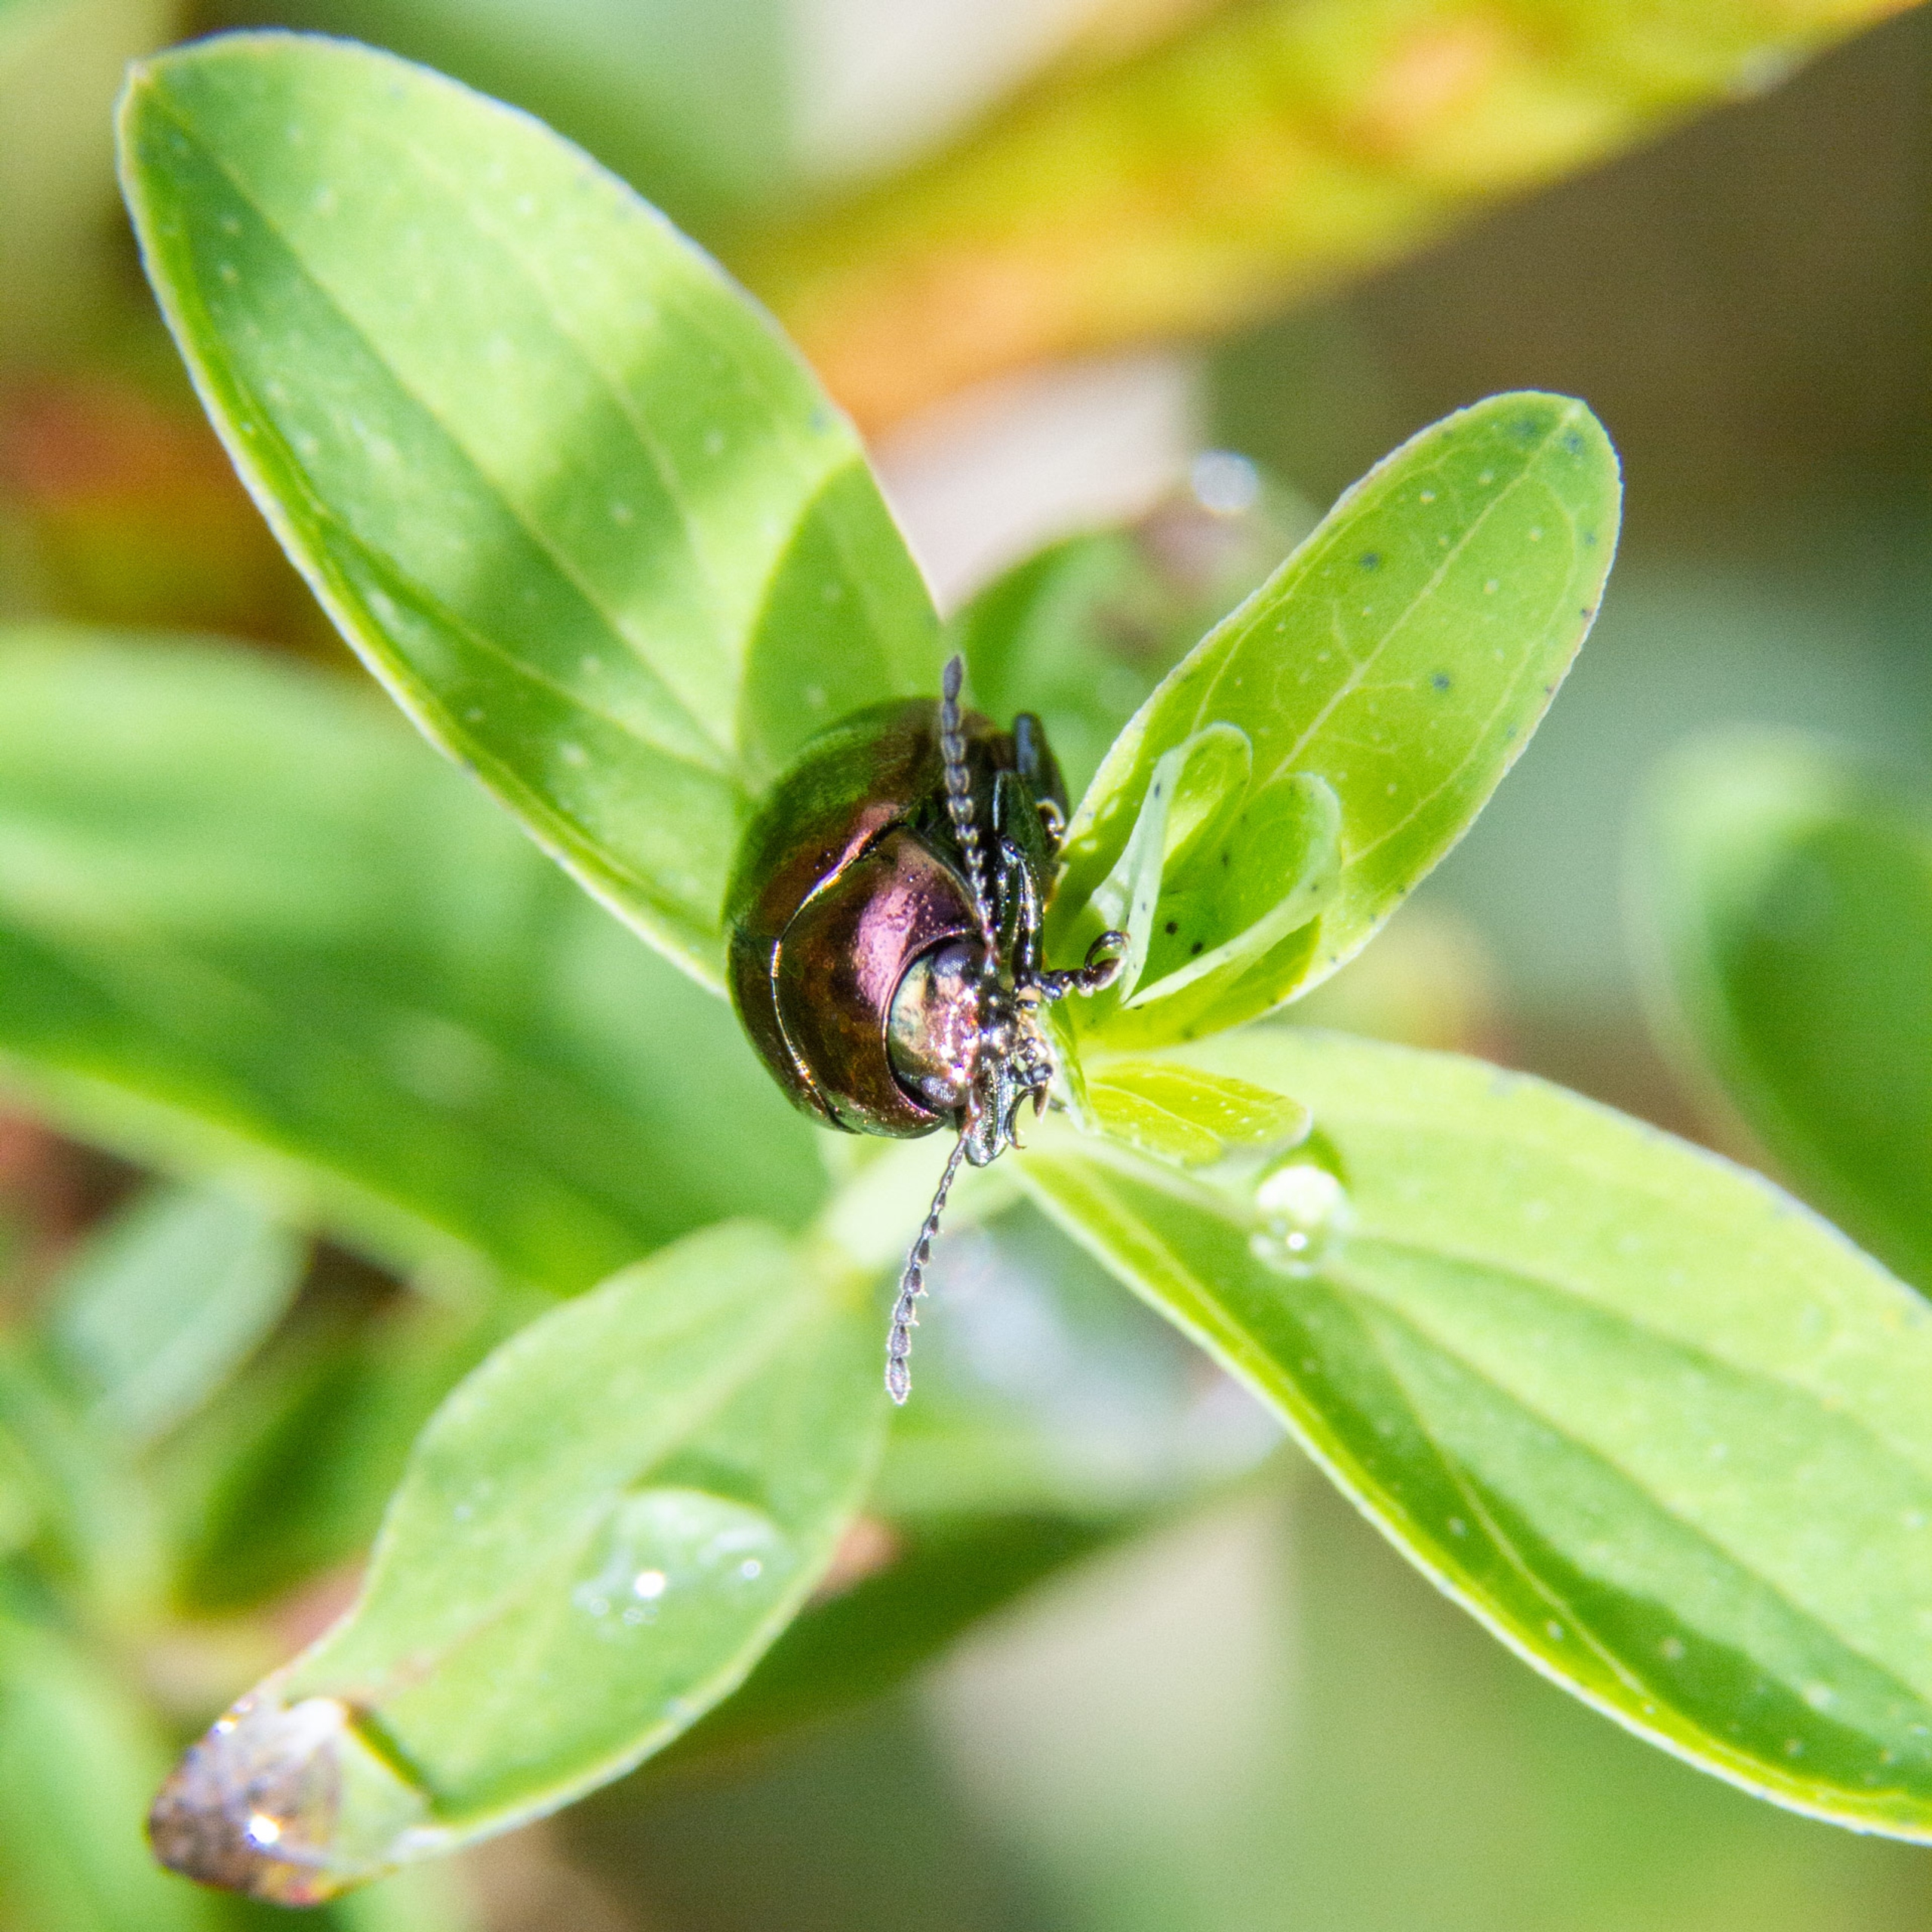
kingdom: Animalia
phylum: Arthropoda
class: Insecta
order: Coleoptera
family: Chrysomelidae
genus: Chrysolina
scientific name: Chrysolina brunsvicensis
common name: Ertsfarvet guldbille
